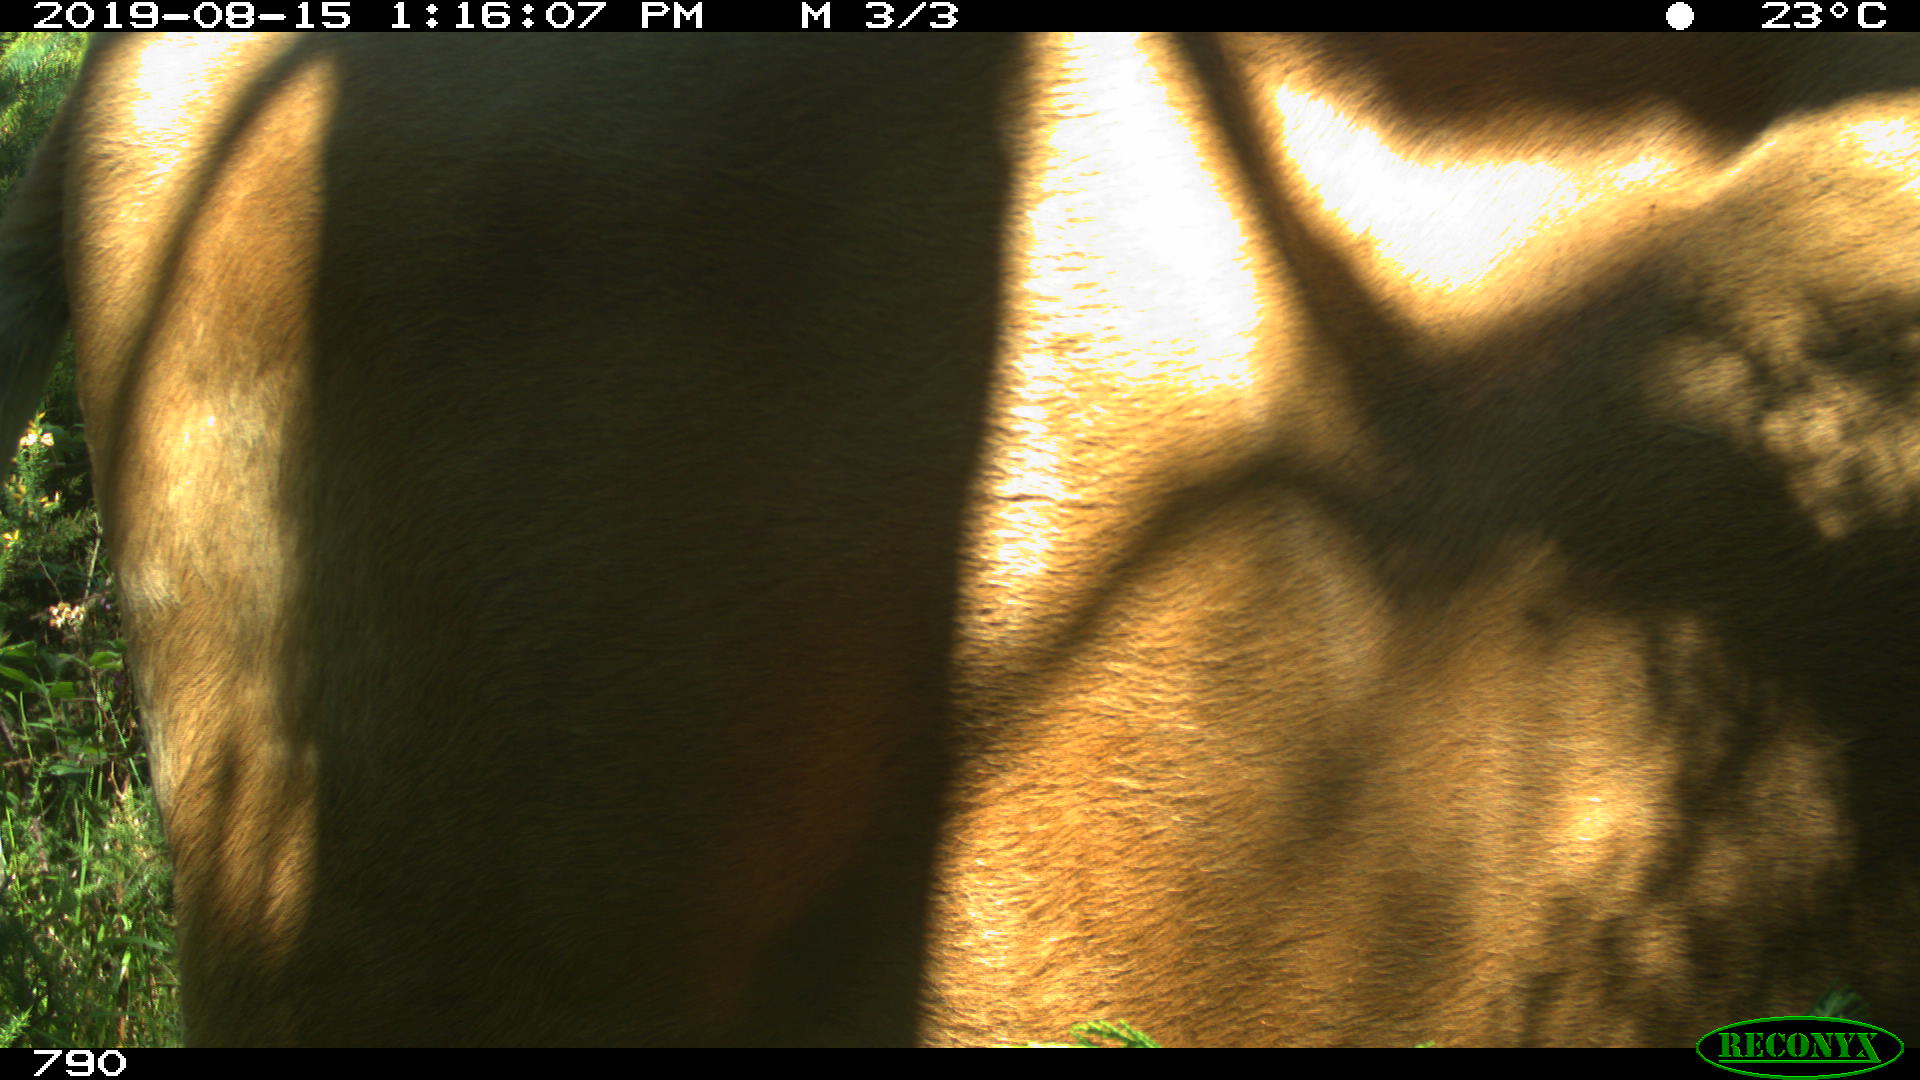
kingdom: Animalia
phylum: Chordata
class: Mammalia
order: Artiodactyla
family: Bovidae
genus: Bos
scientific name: Bos taurus
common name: Domesticated cattle
